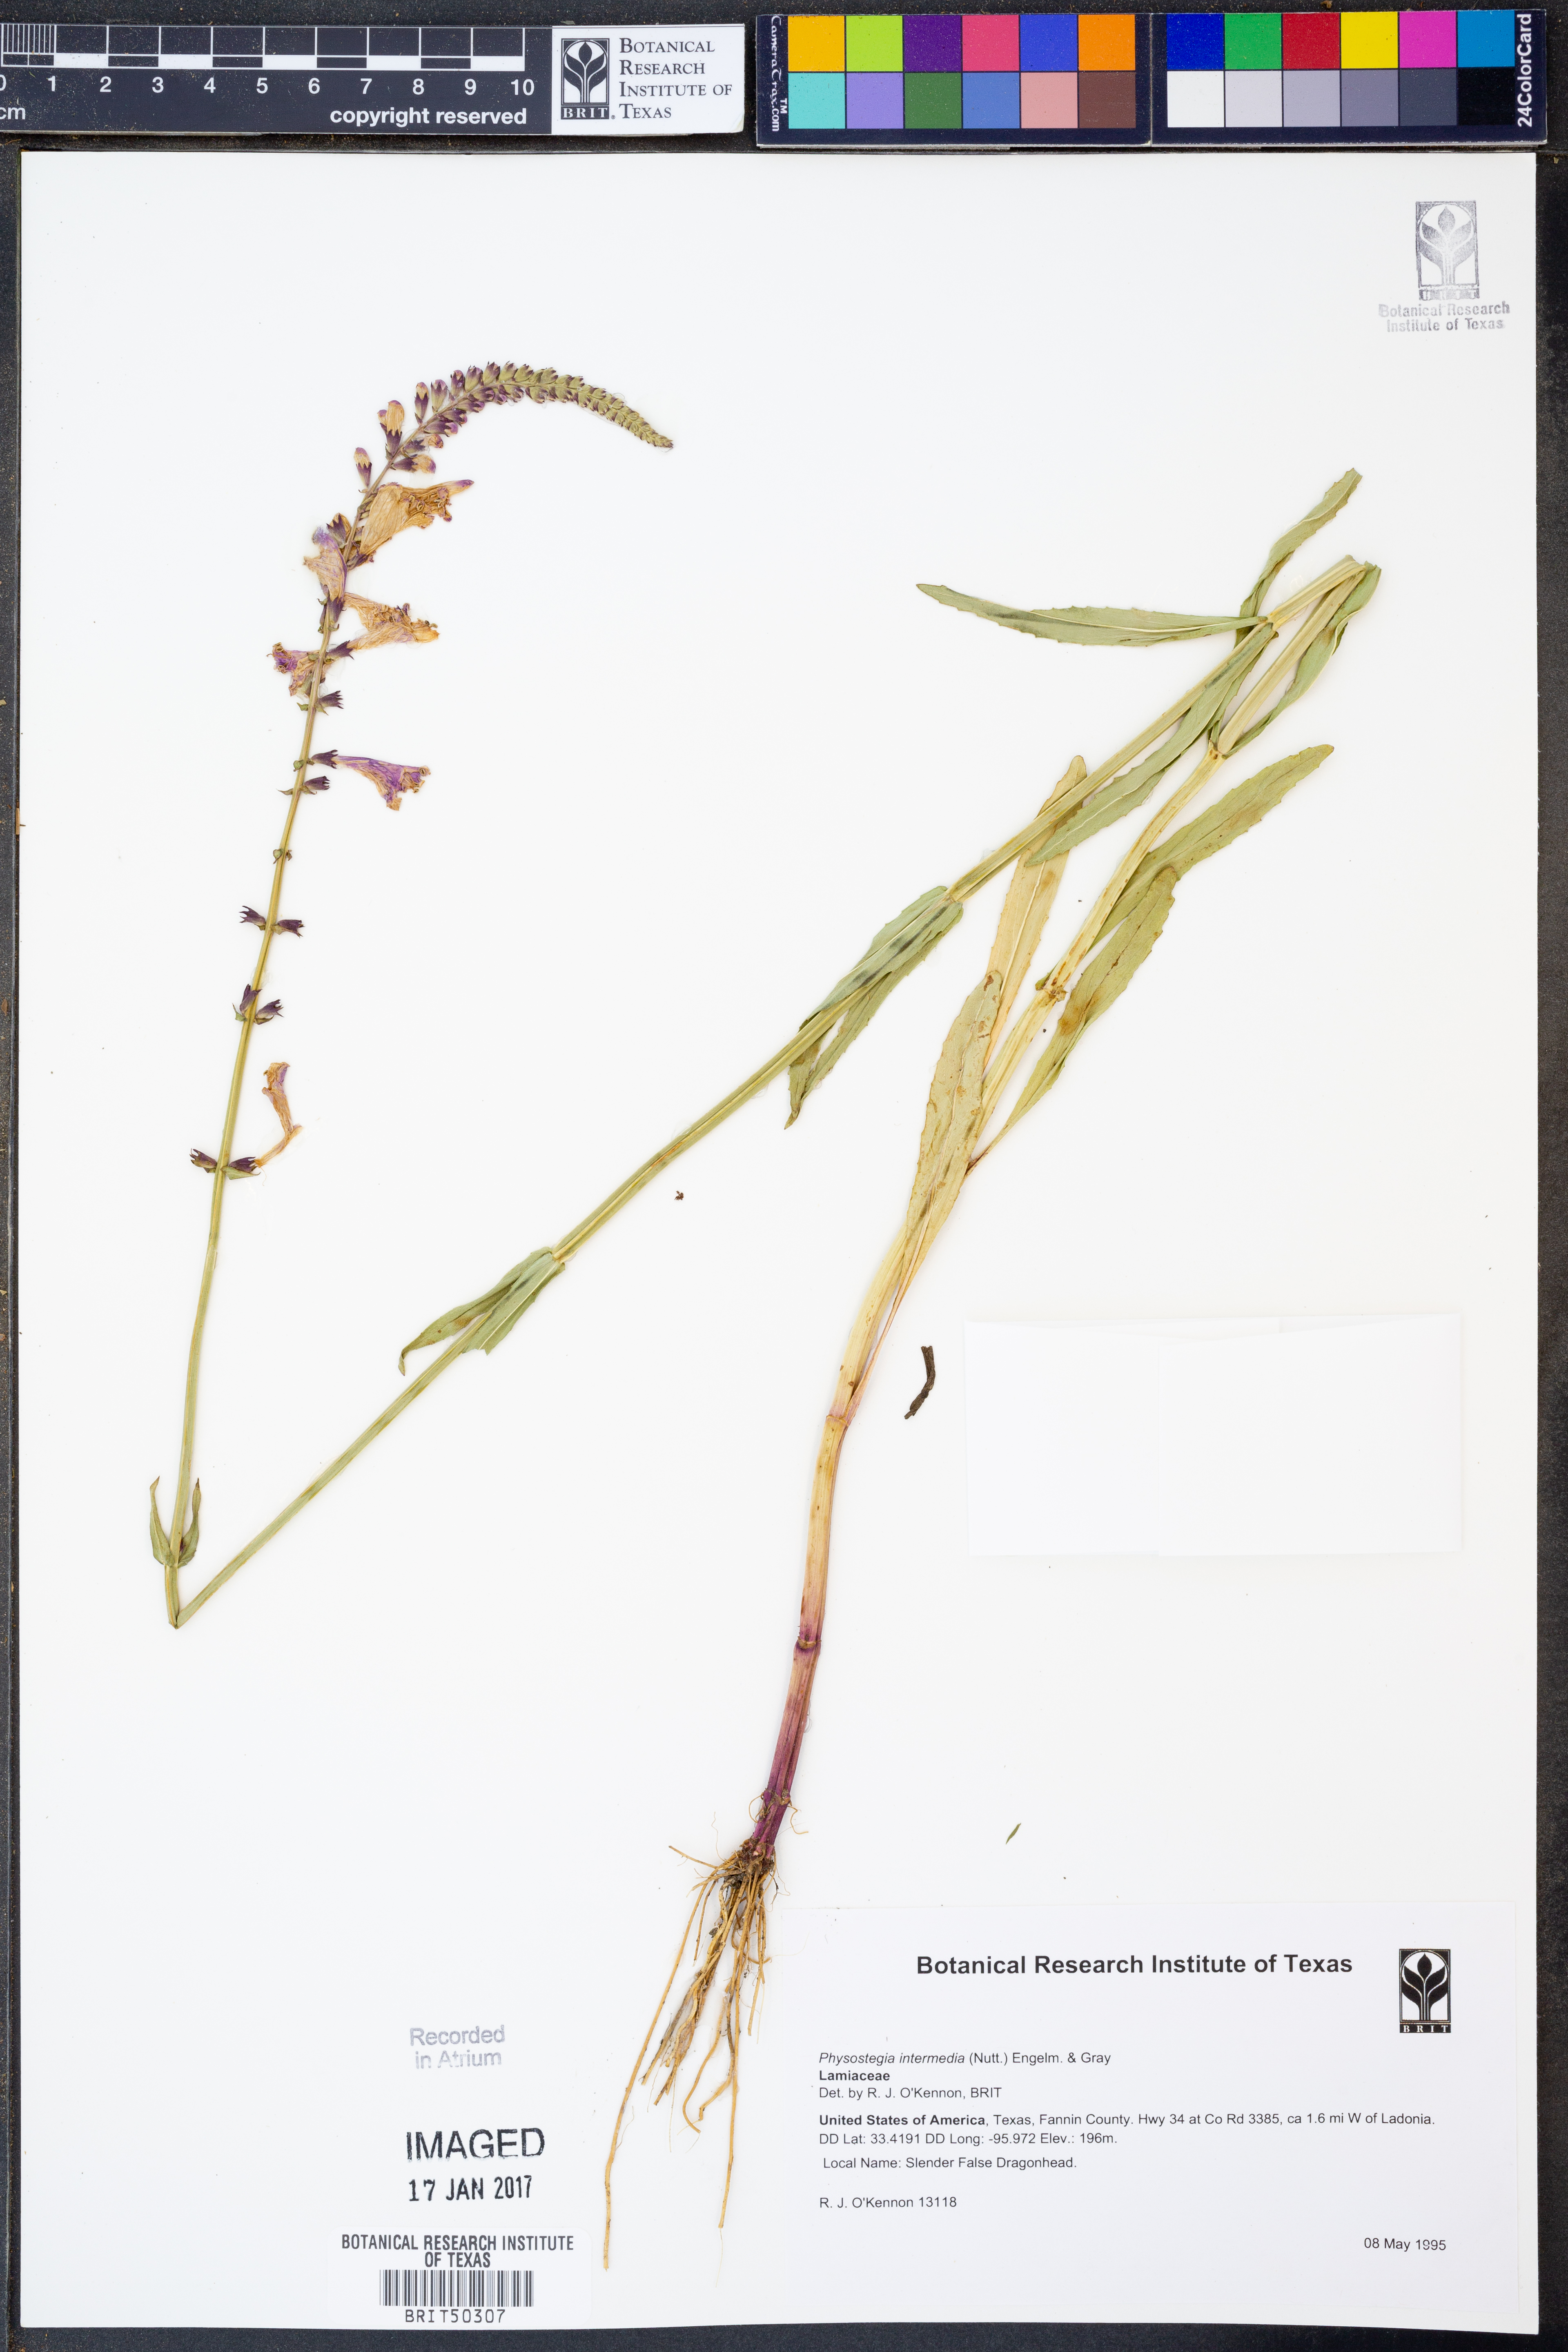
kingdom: Plantae
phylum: Tracheophyta
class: Magnoliopsida
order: Lamiales
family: Lamiaceae
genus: Physostegia
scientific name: Physostegia intermedia
